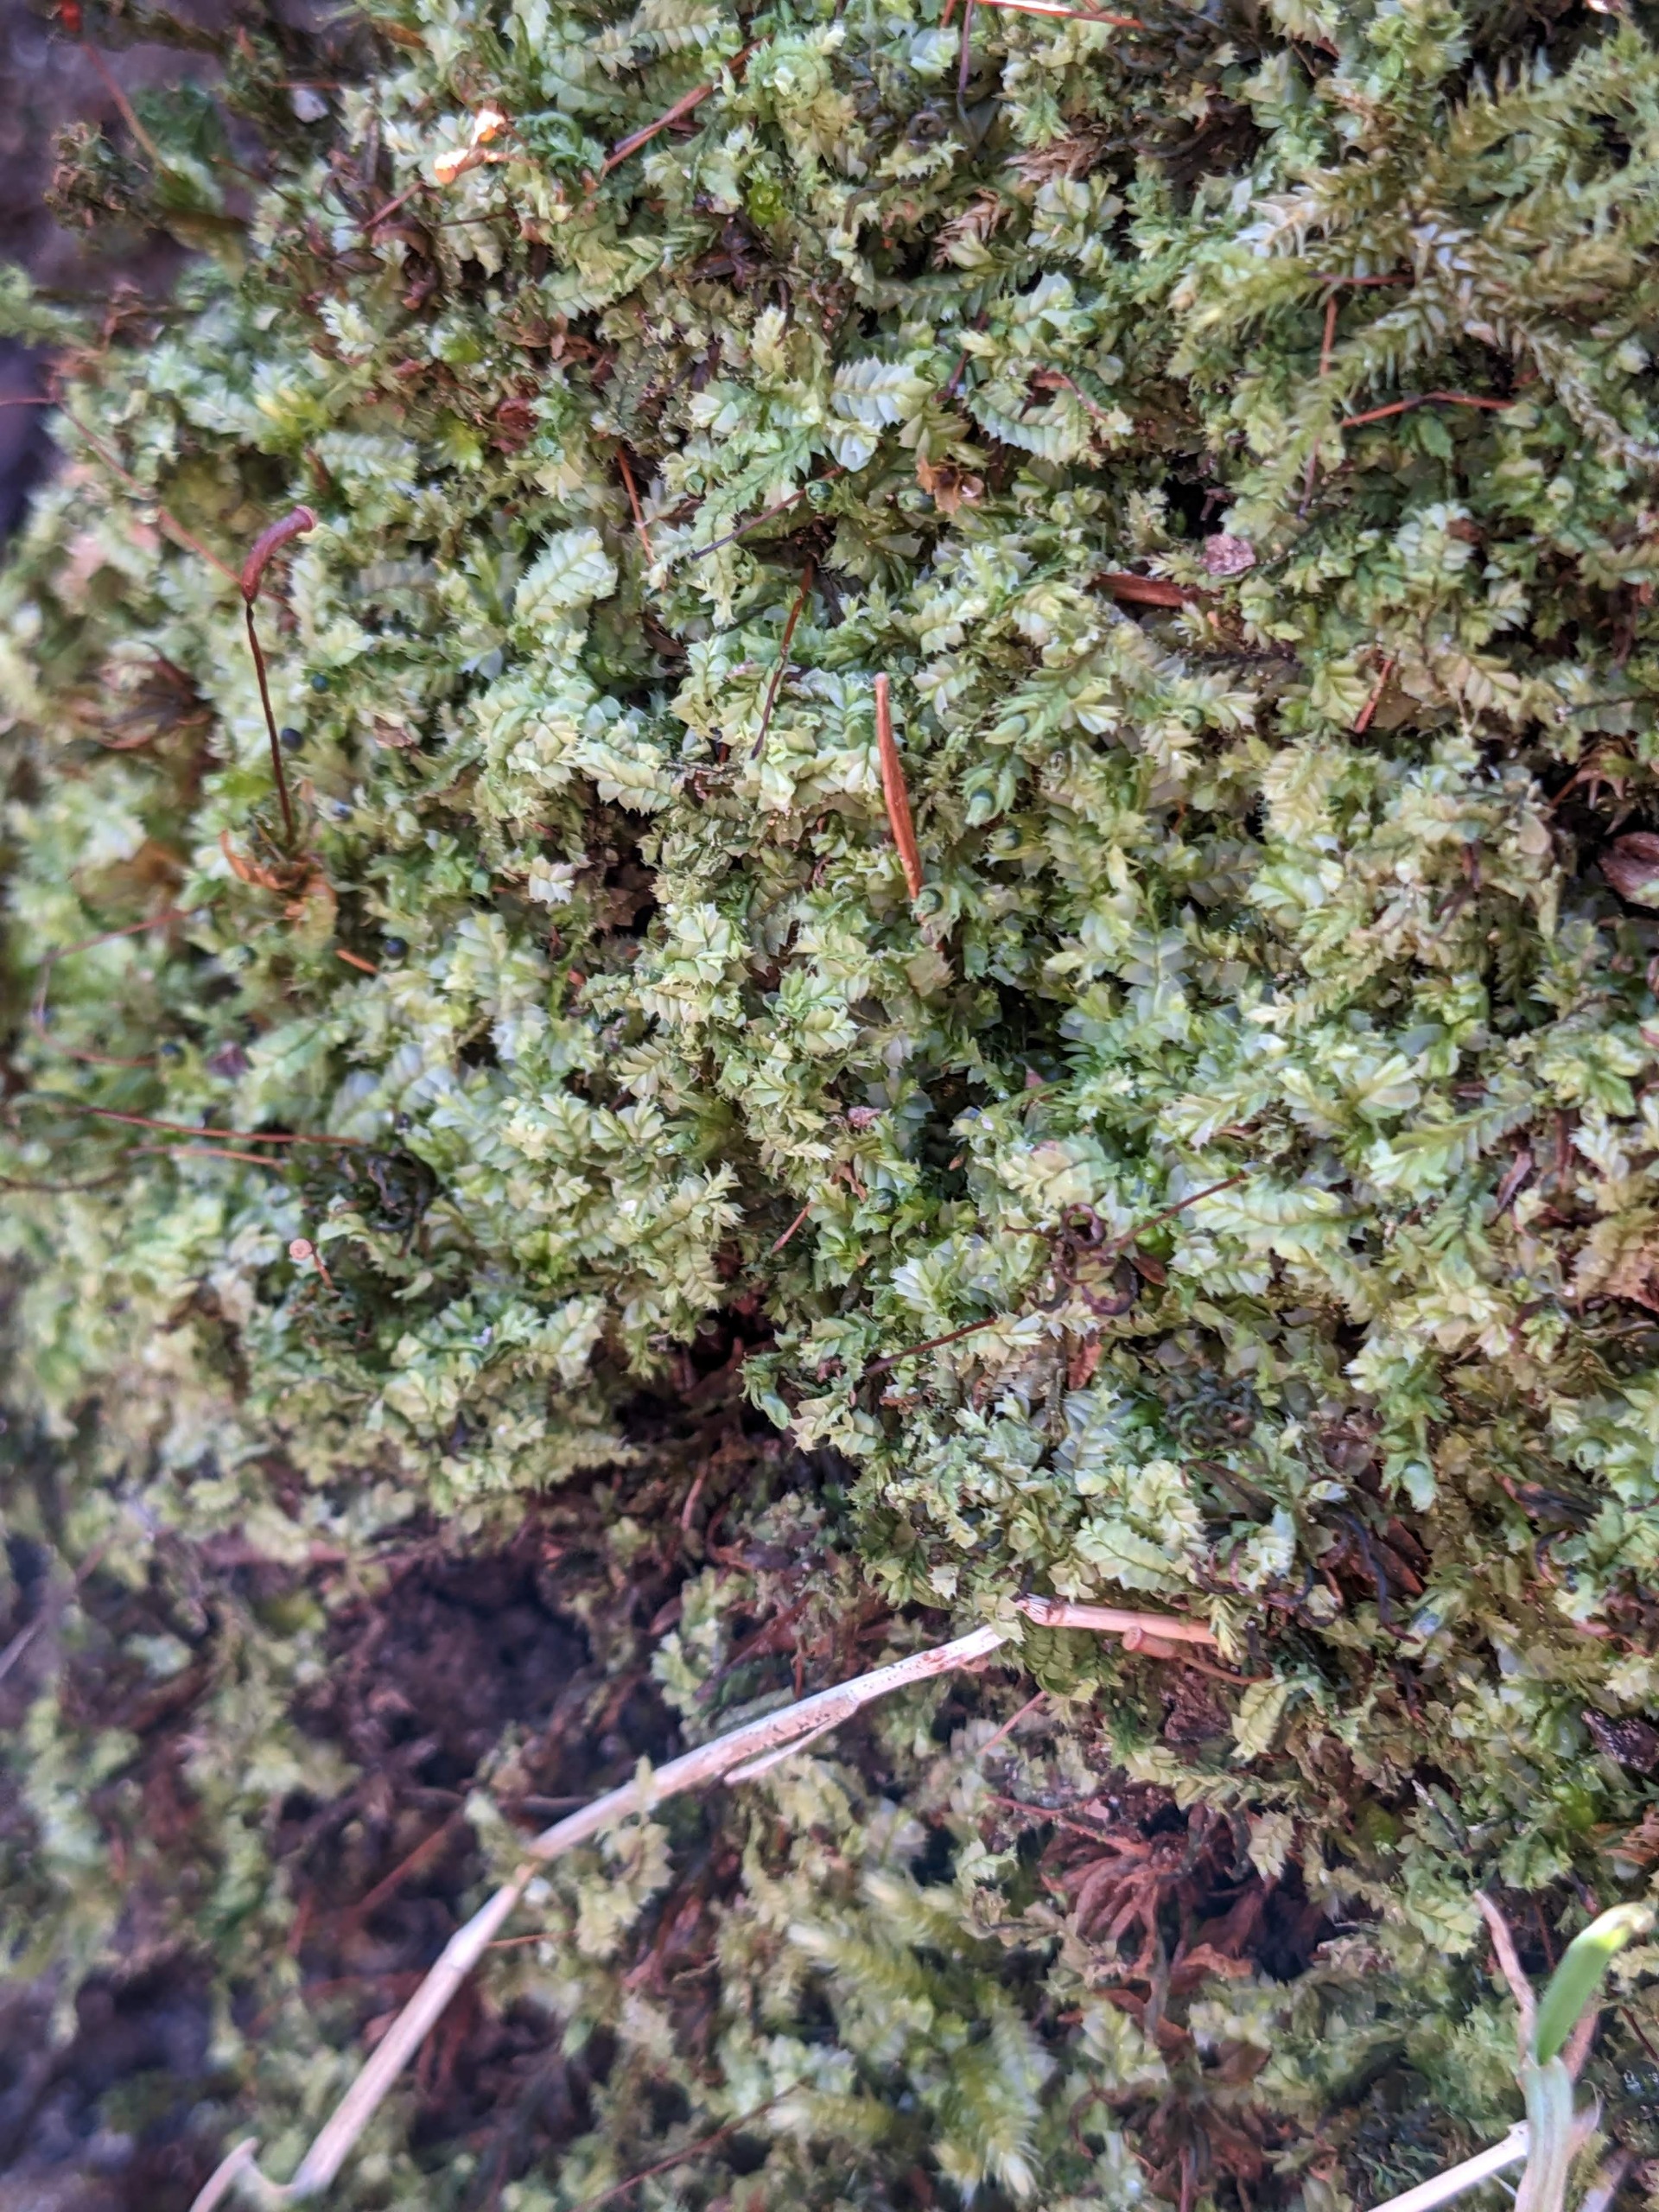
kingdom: Plantae
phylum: Marchantiophyta
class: Jungermanniopsida
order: Jungermanniales
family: Lophocoleaceae
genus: Lophocolea
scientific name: Lophocolea bidentata
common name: Sylspidset kamsvøb
